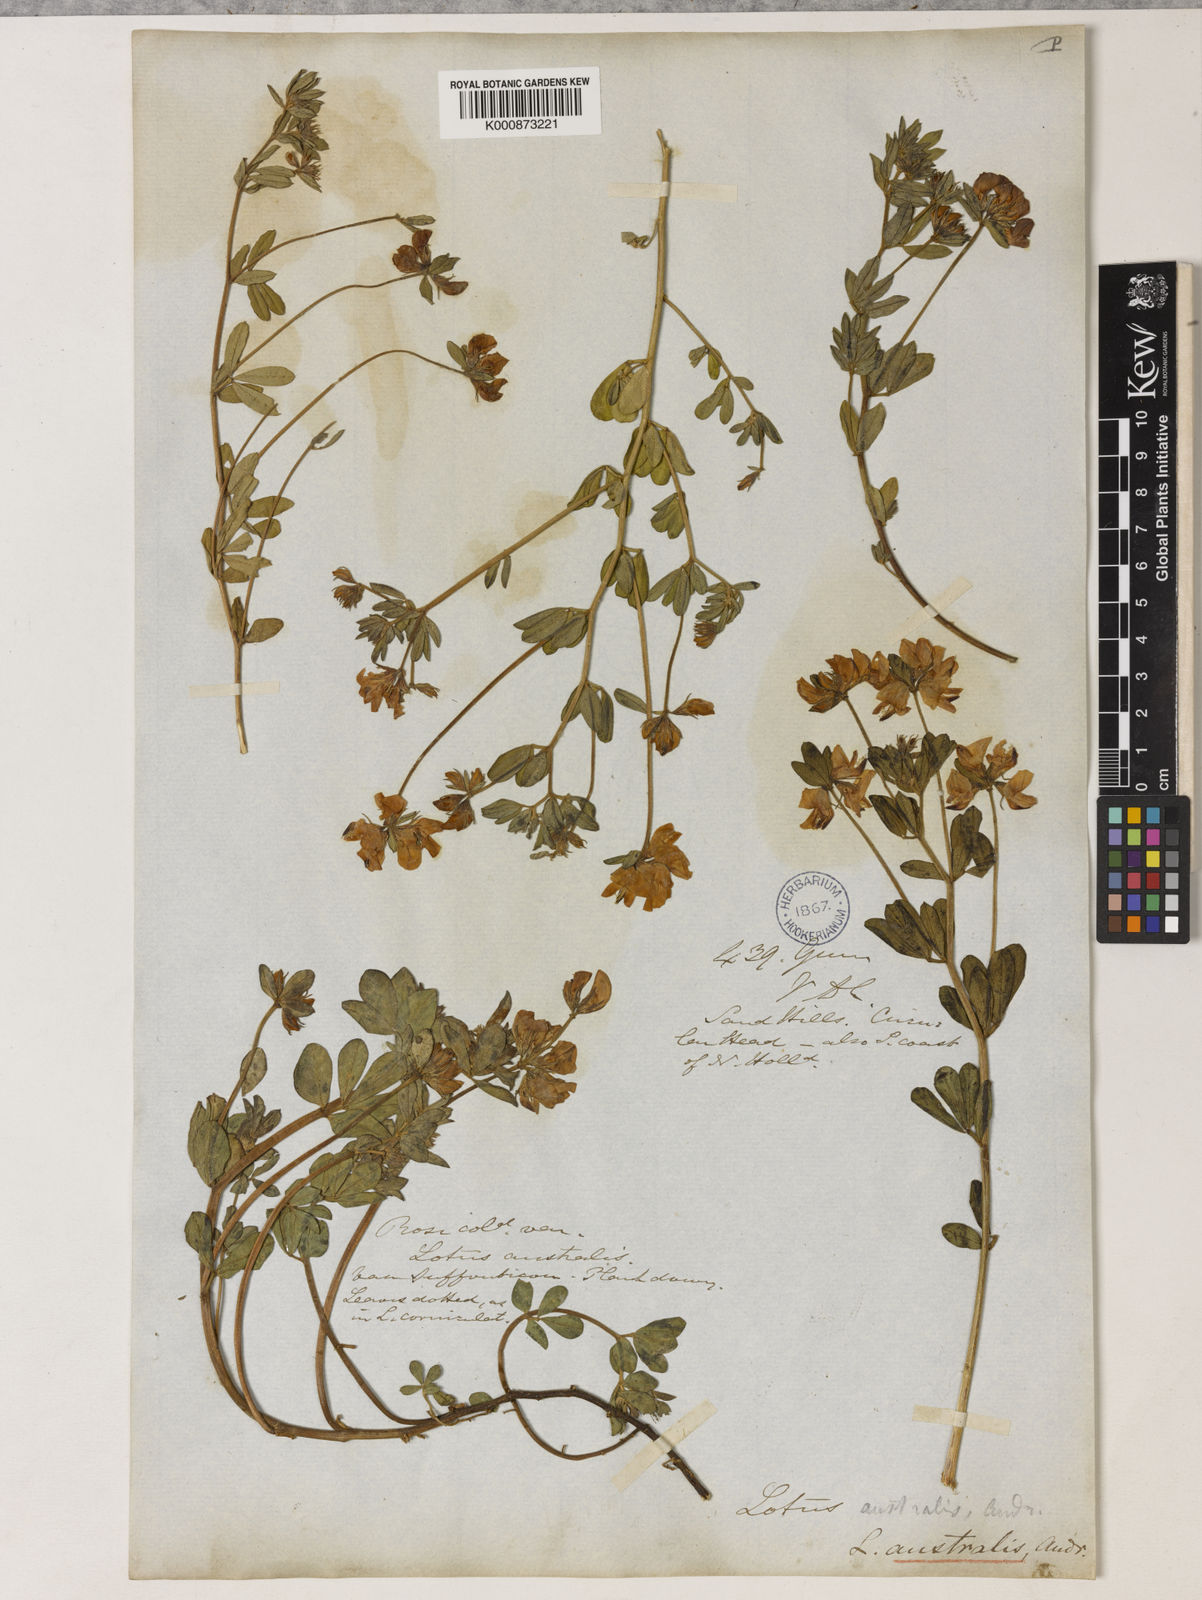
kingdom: Plantae
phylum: Tracheophyta
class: Magnoliopsida
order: Fabales
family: Fabaceae
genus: Lotus
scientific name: Lotus australis
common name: Australian trefoil
